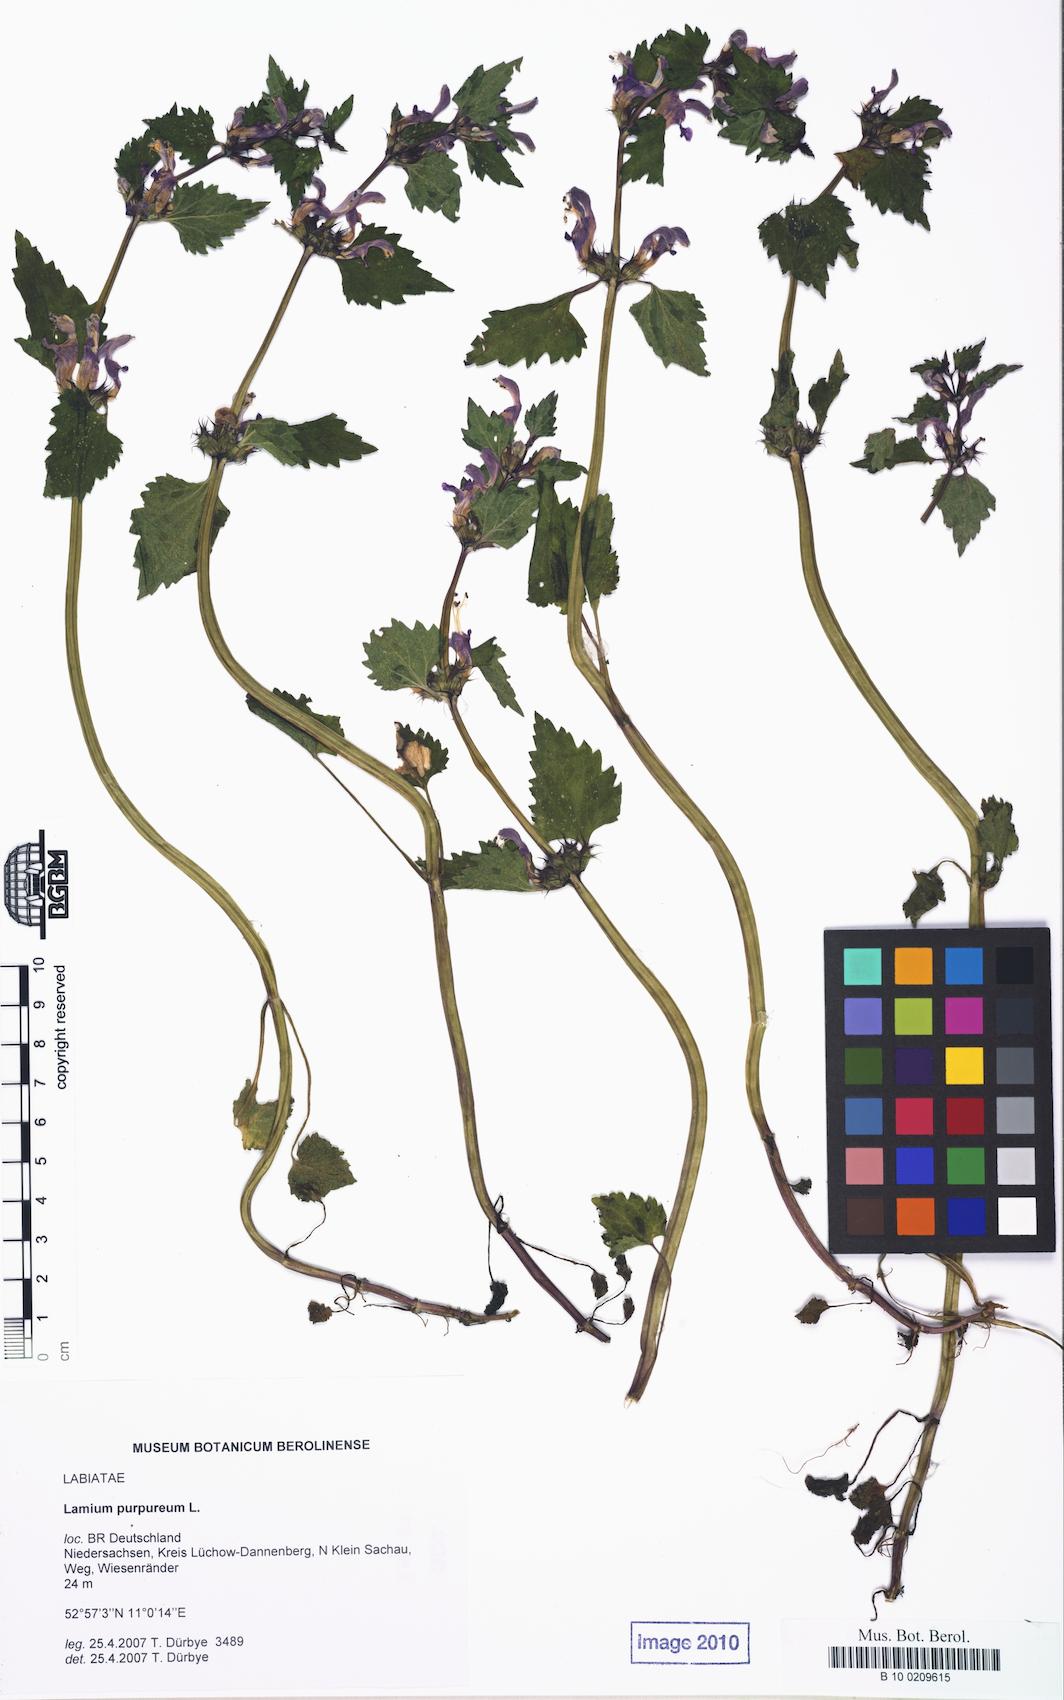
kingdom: Plantae
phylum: Tracheophyta
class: Magnoliopsida
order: Lamiales
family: Lamiaceae
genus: Lamium
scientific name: Lamium purpureum
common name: Red dead-nettle
